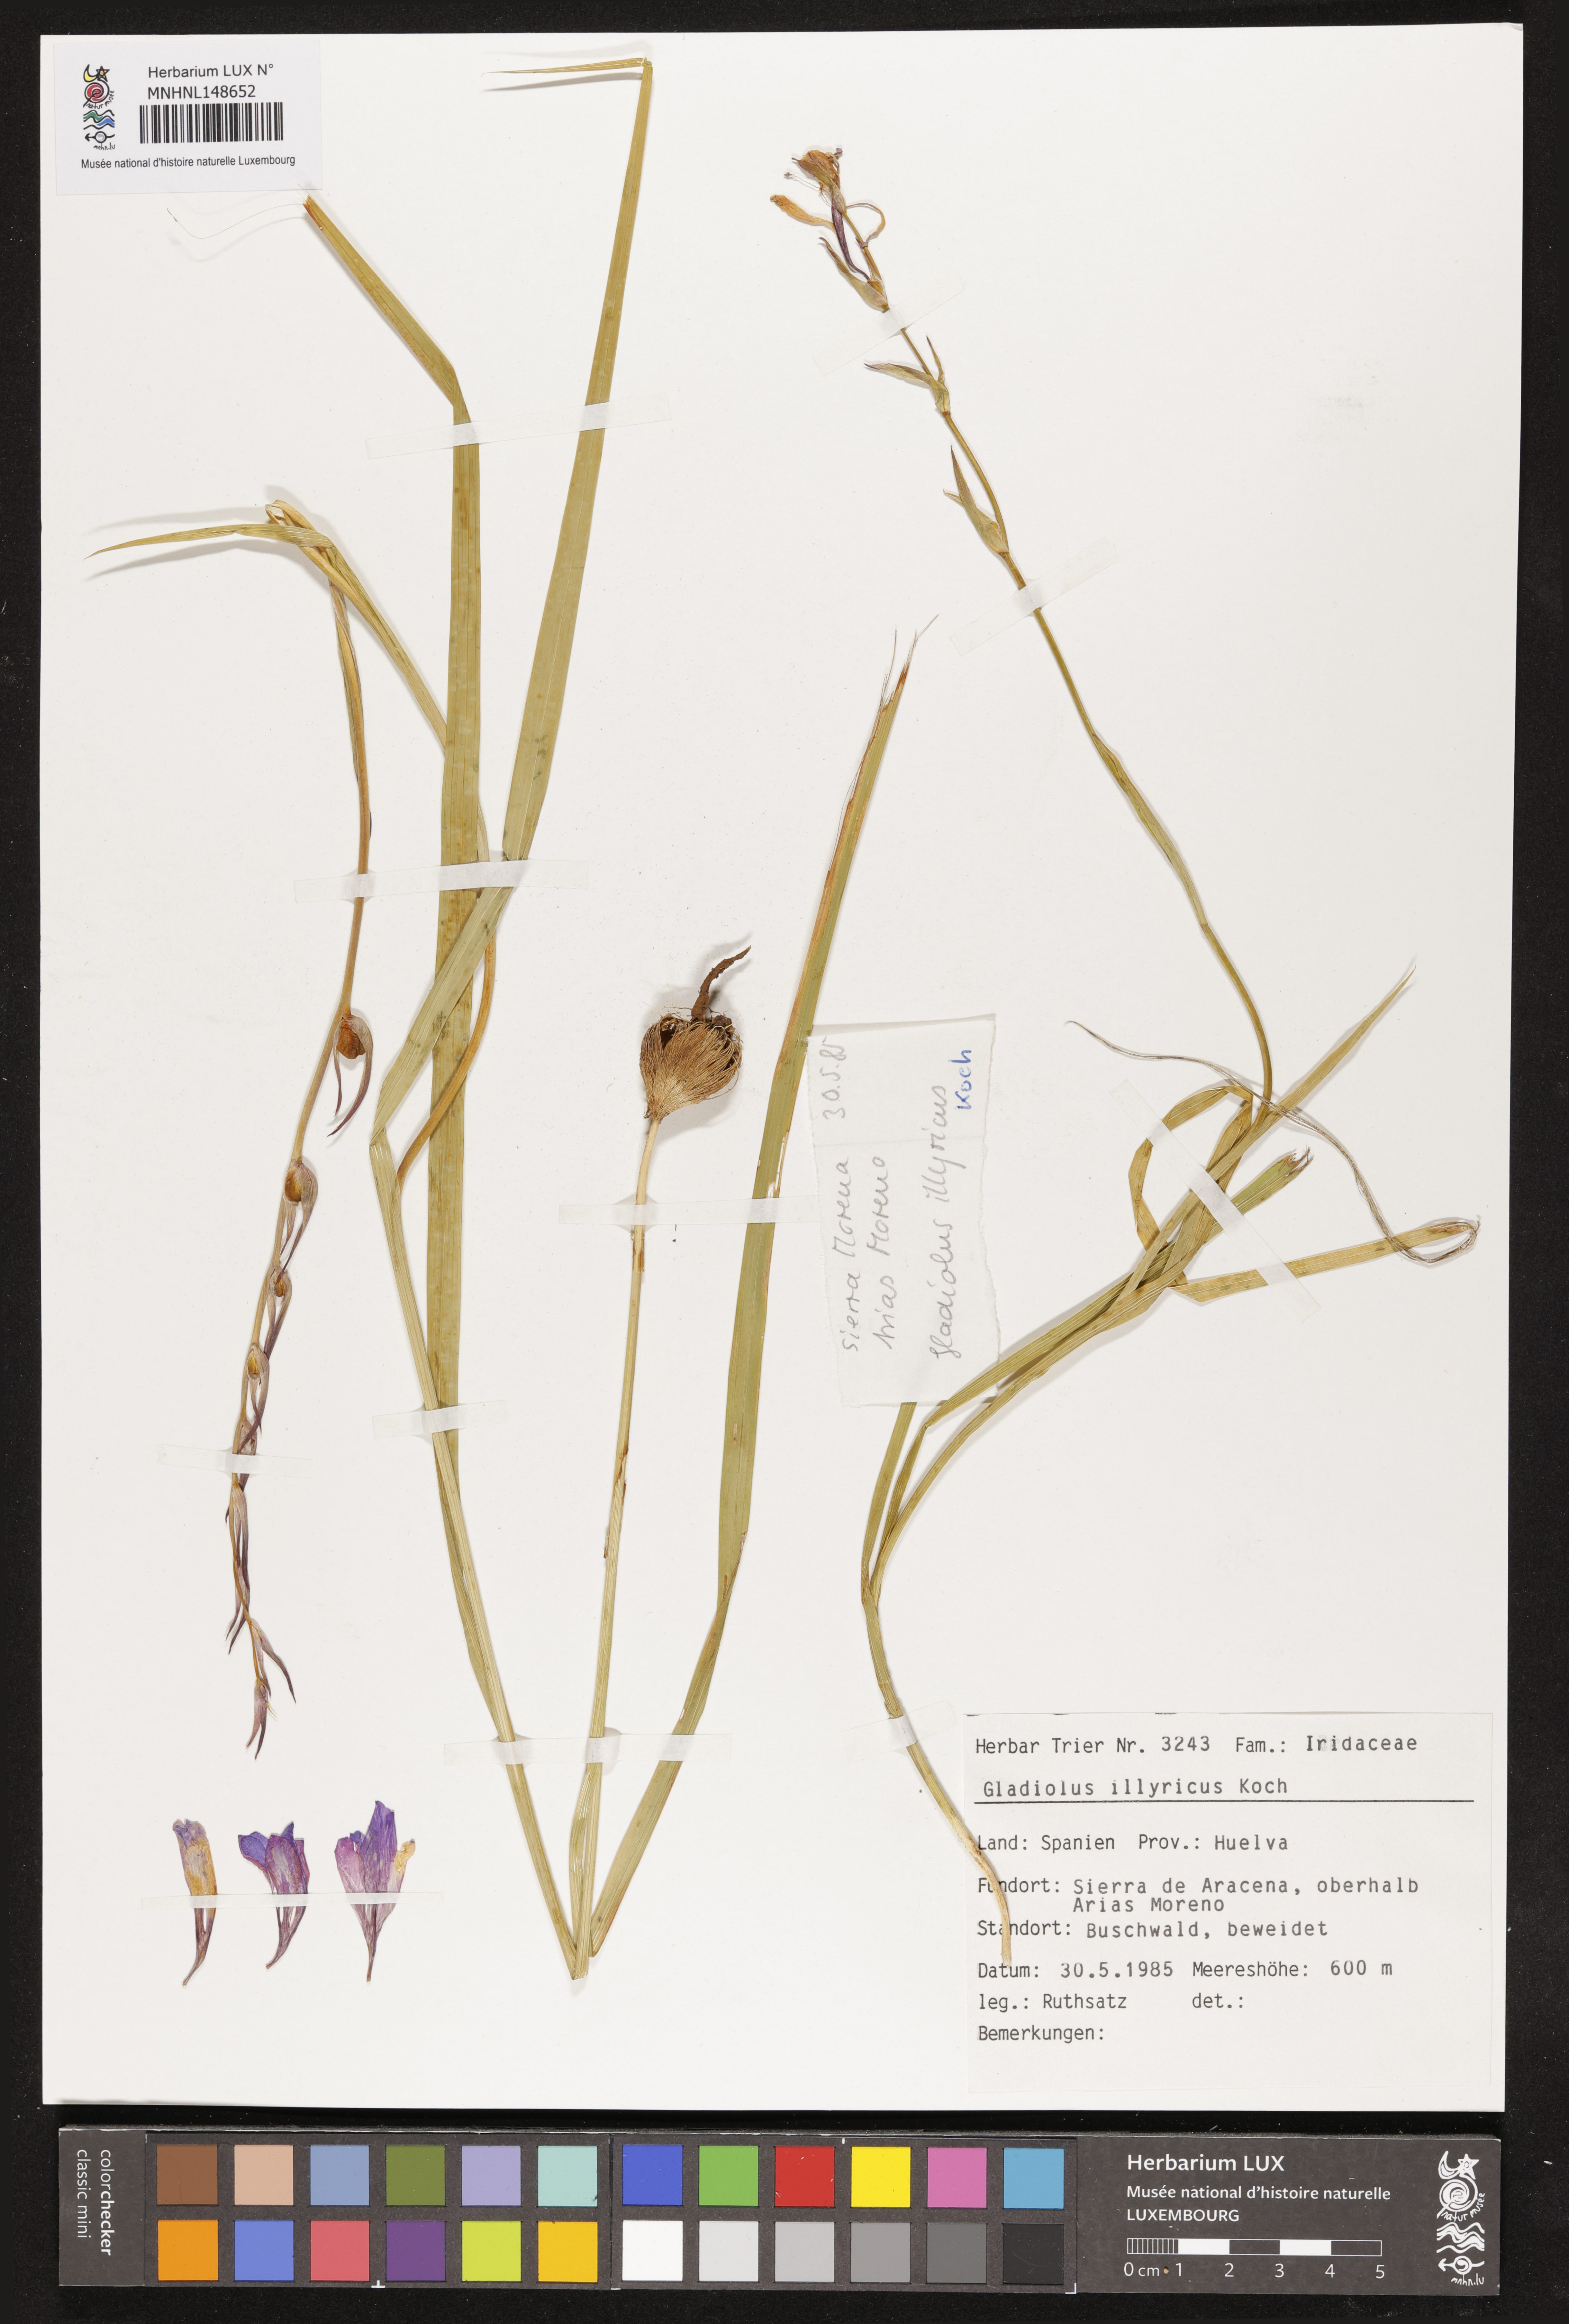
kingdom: Plantae
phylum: Tracheophyta
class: Liliopsida
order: Asparagales
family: Iridaceae
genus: Gladiolus
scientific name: Gladiolus illyricus
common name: Wild gladiolus
